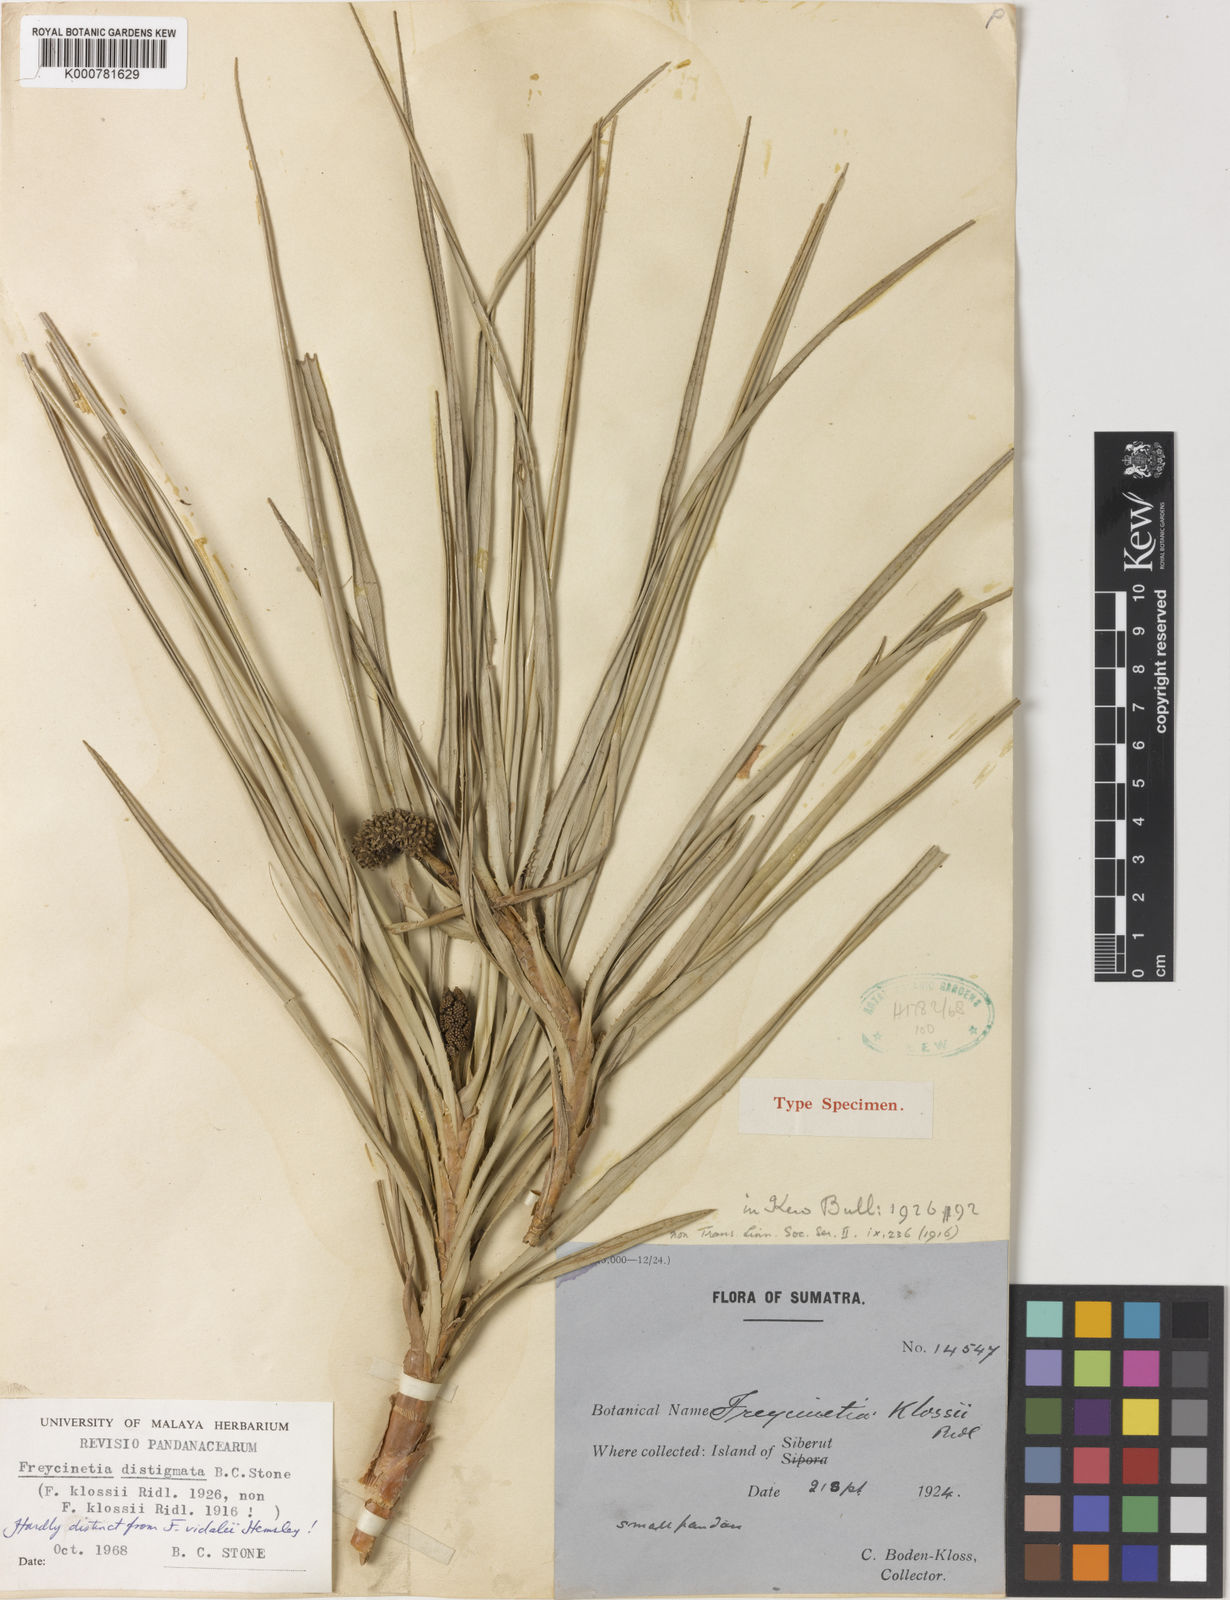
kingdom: Plantae
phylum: Tracheophyta
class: Liliopsida
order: Pandanales
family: Pandanaceae
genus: Freycinetia
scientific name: Freycinetia distigmata
